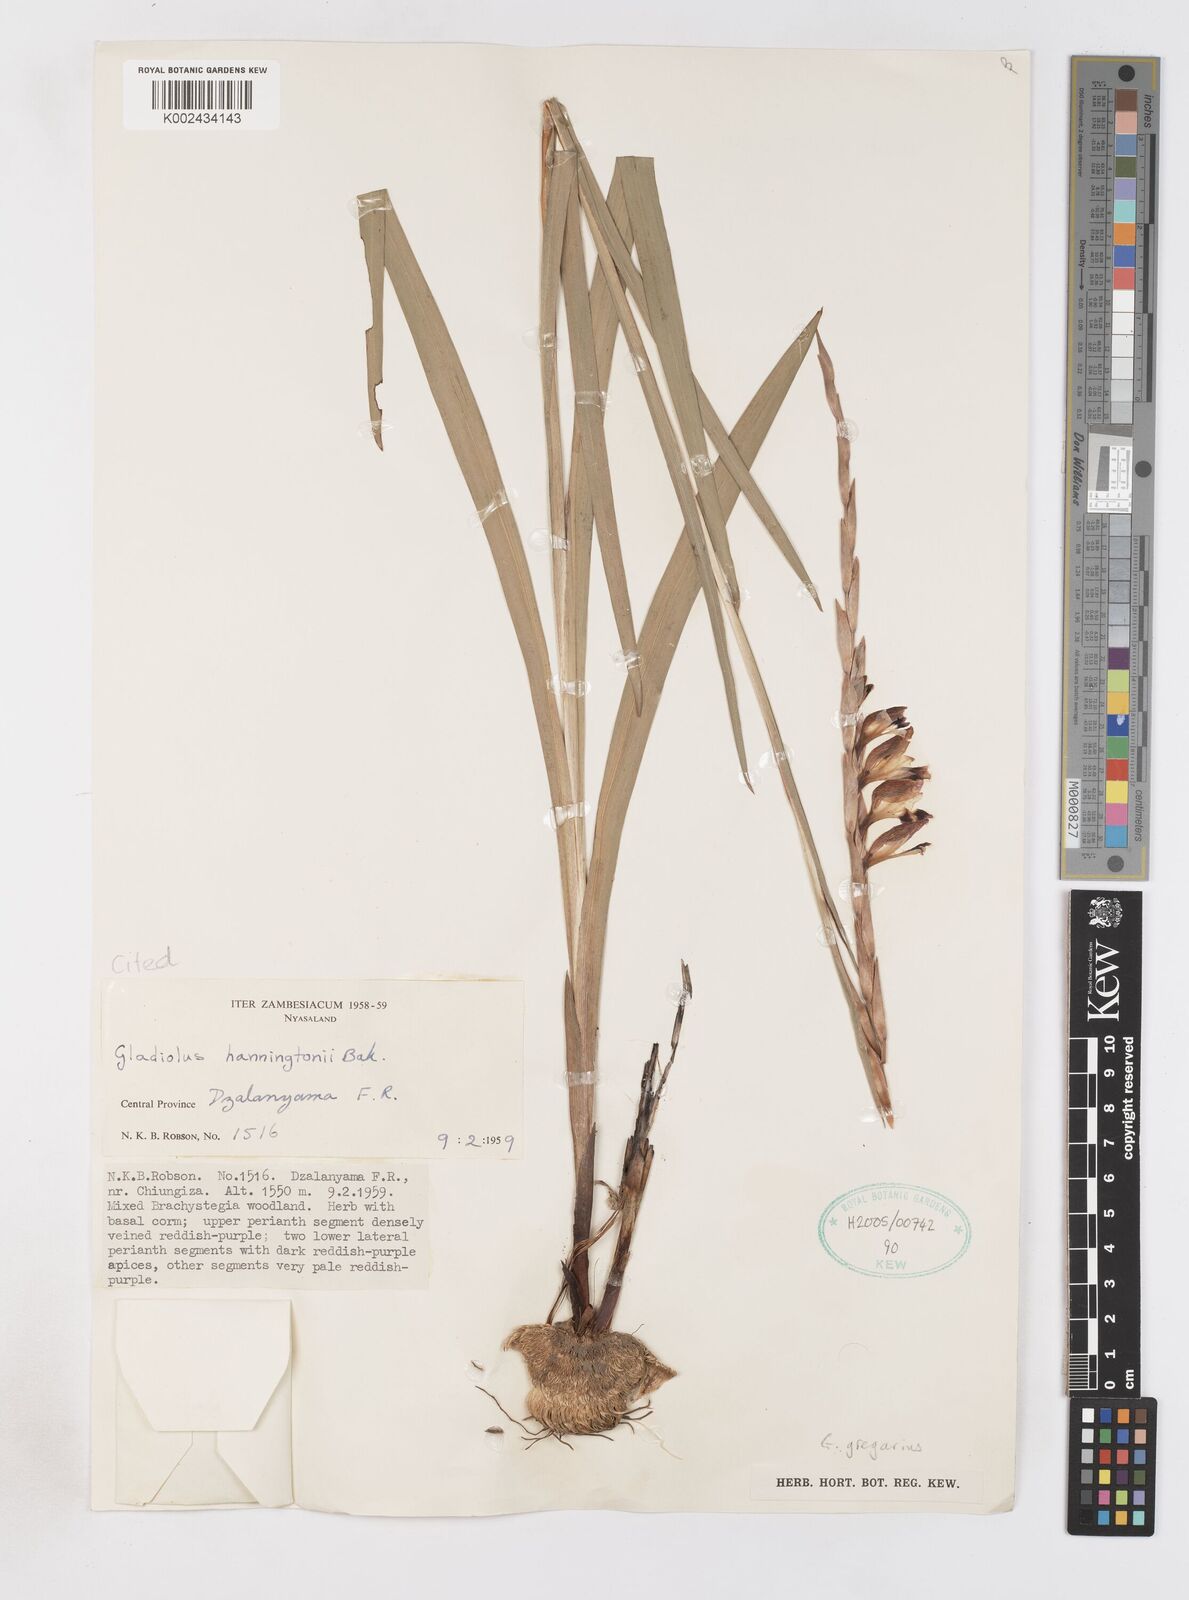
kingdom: Plantae
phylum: Tracheophyta
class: Liliopsida
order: Asparagales
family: Iridaceae
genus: Gladiolus
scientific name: Gladiolus gregarius
